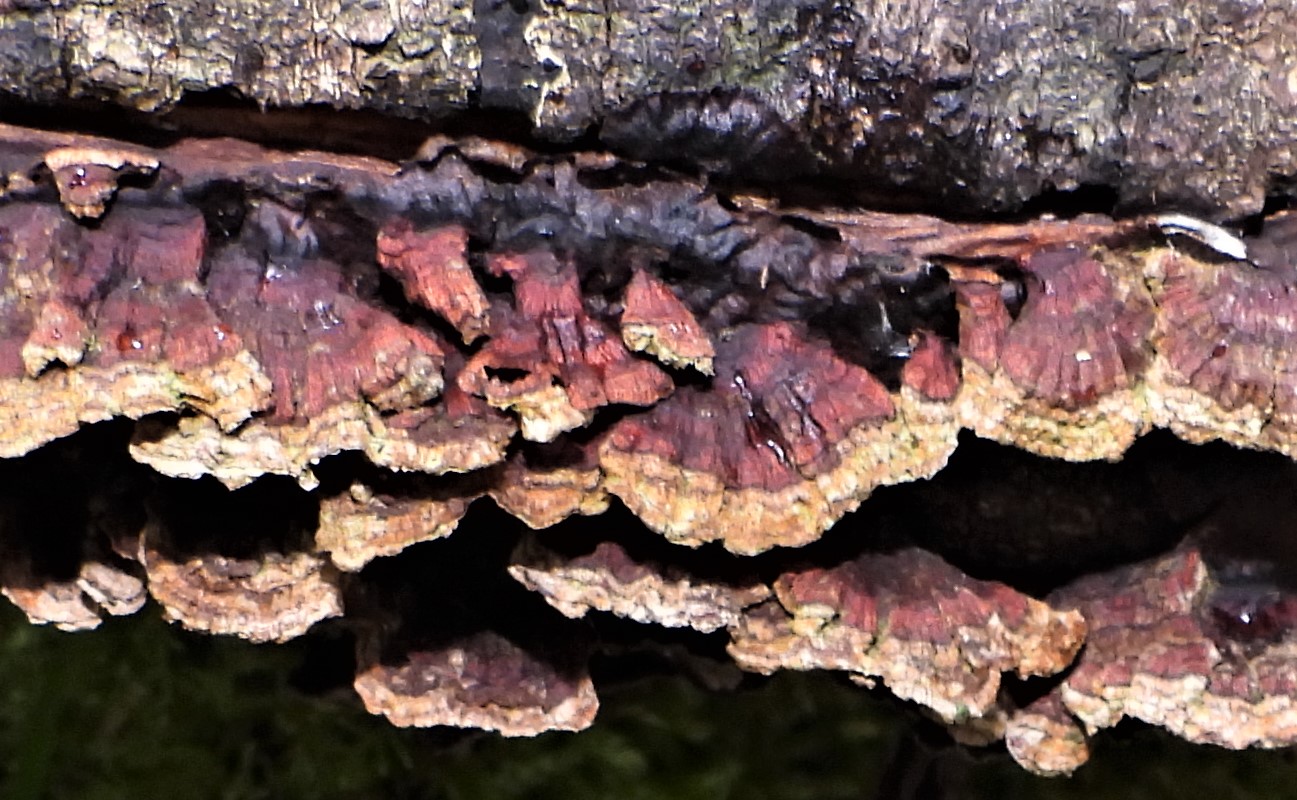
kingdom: Fungi
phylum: Basidiomycota
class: Agaricomycetes
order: Hymenochaetales
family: Hymenochaetaceae
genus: Hydnoporia
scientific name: Hydnoporia tabacina
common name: tobaksbrun ruslædersvamp
